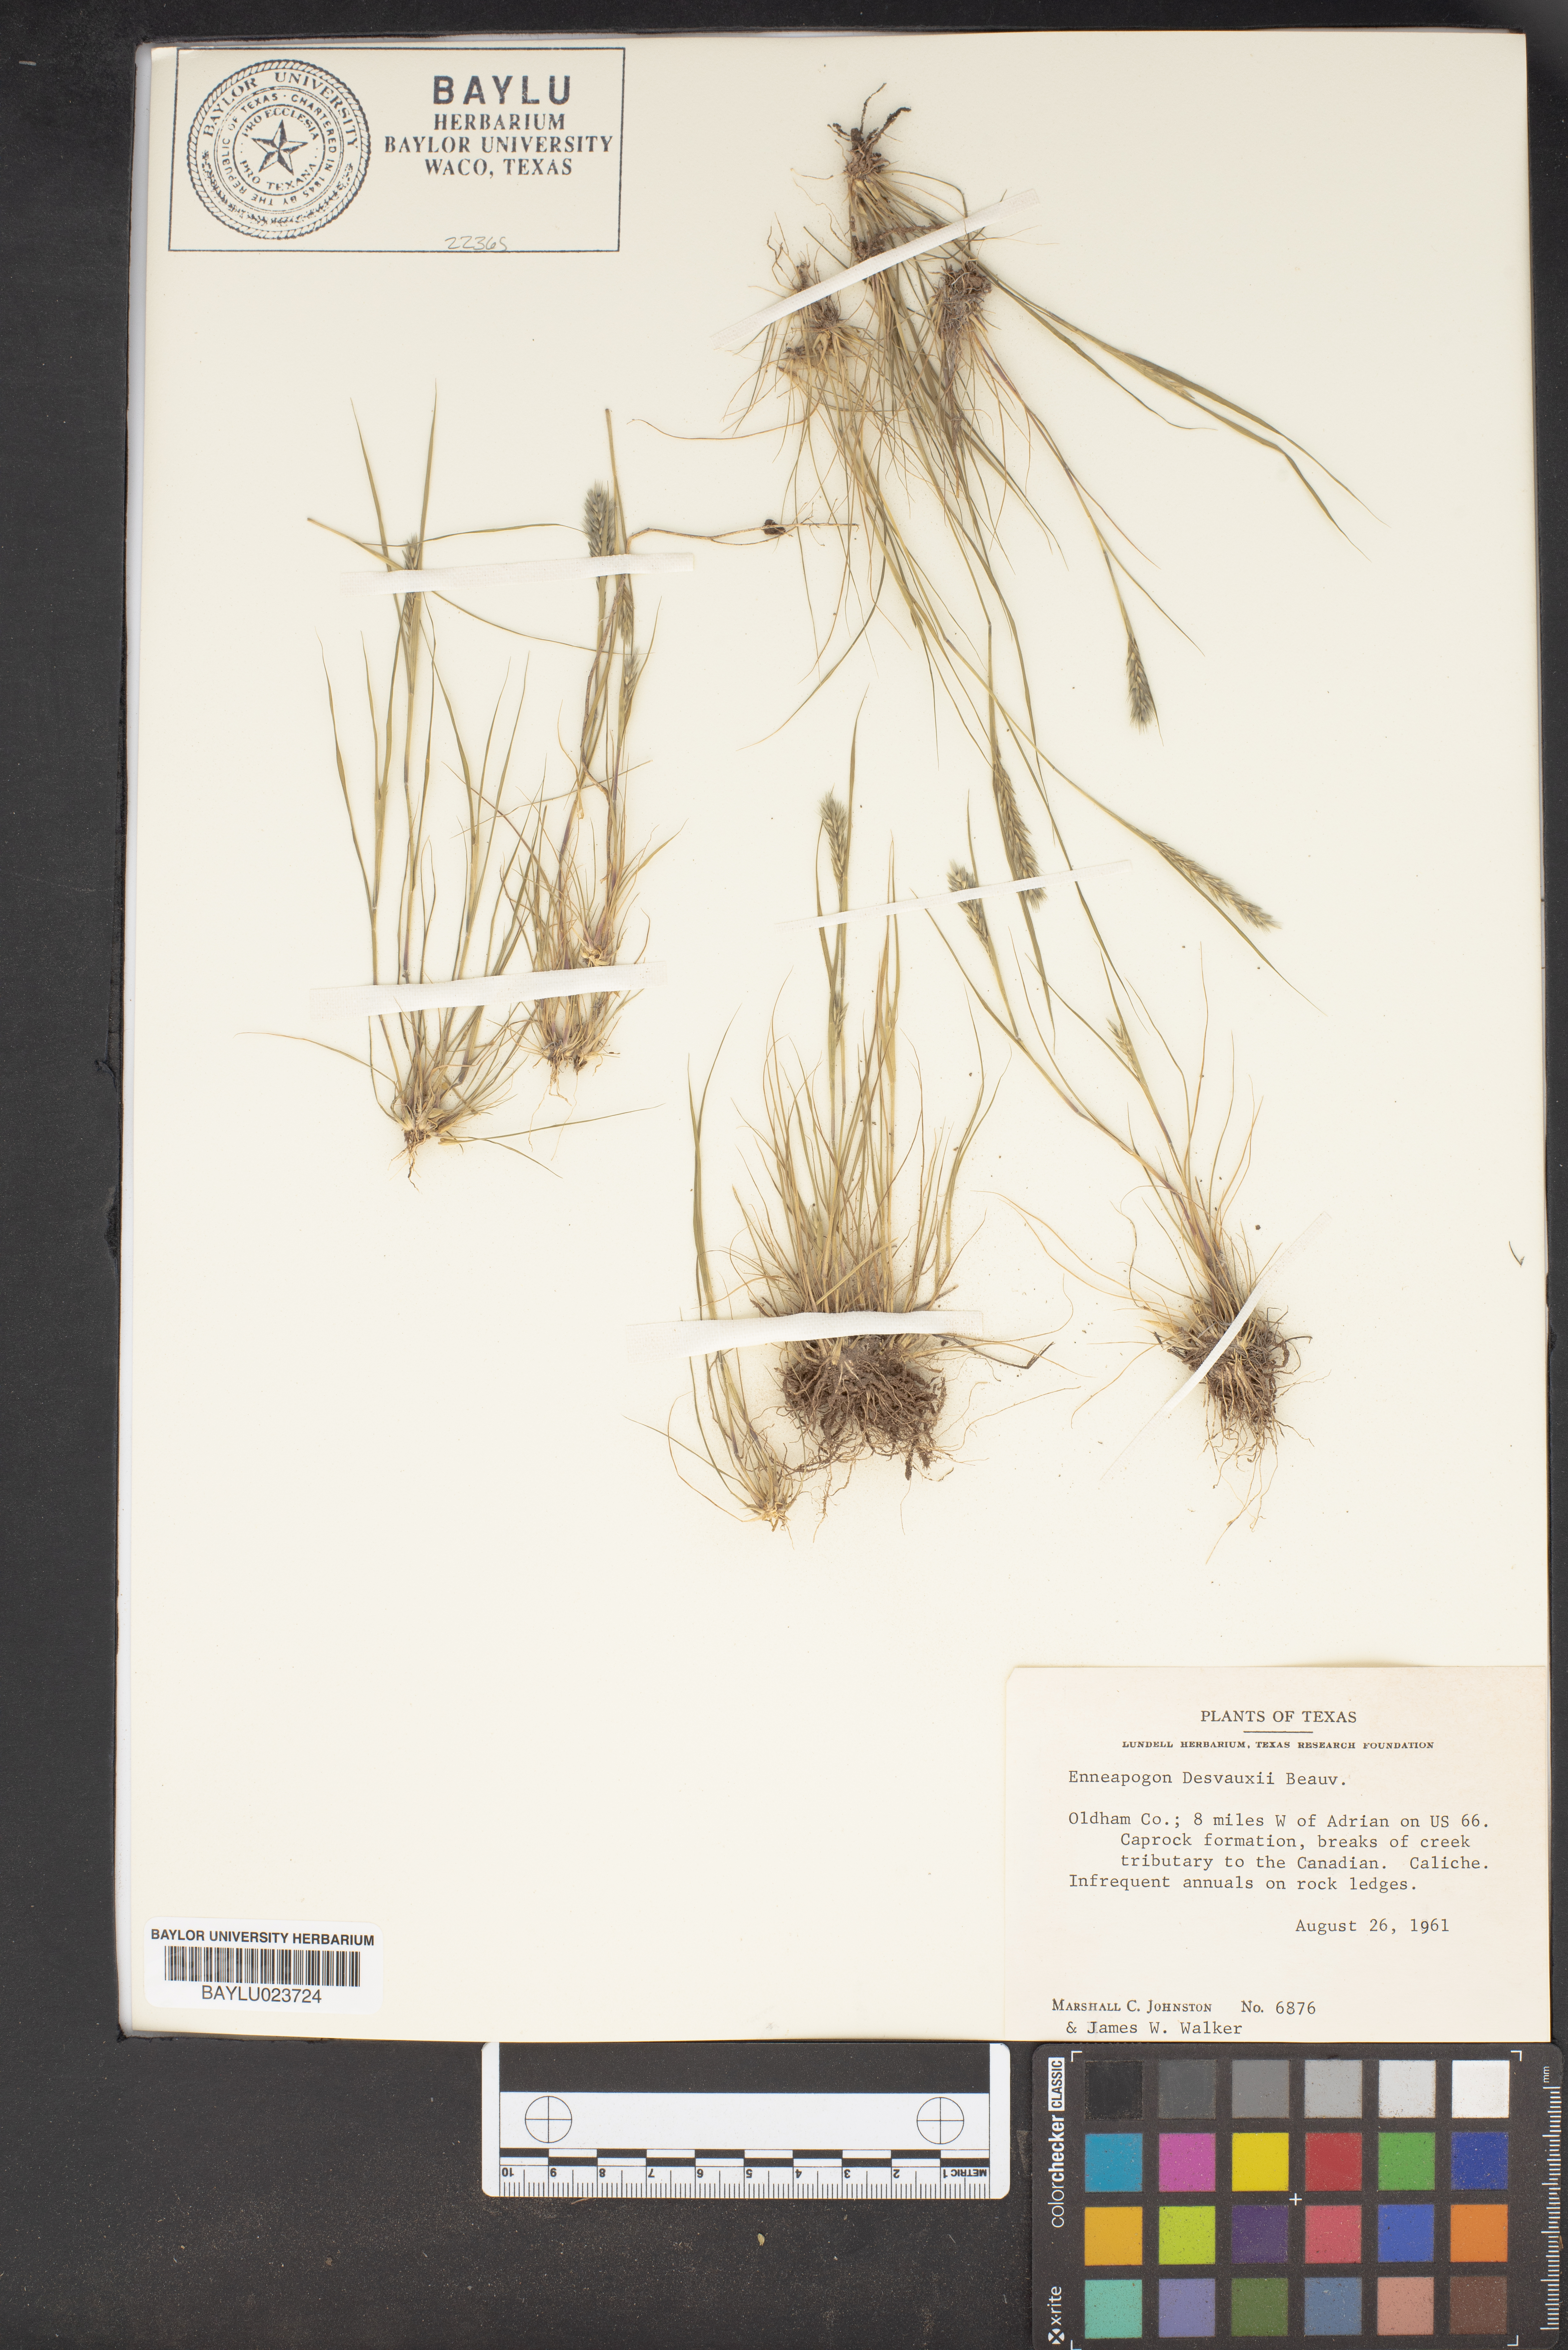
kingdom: Plantae
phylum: Tracheophyta
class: Liliopsida
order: Poales
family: Poaceae
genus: Enneapogon
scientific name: Enneapogon desvauxii
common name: Feather pappus grass
